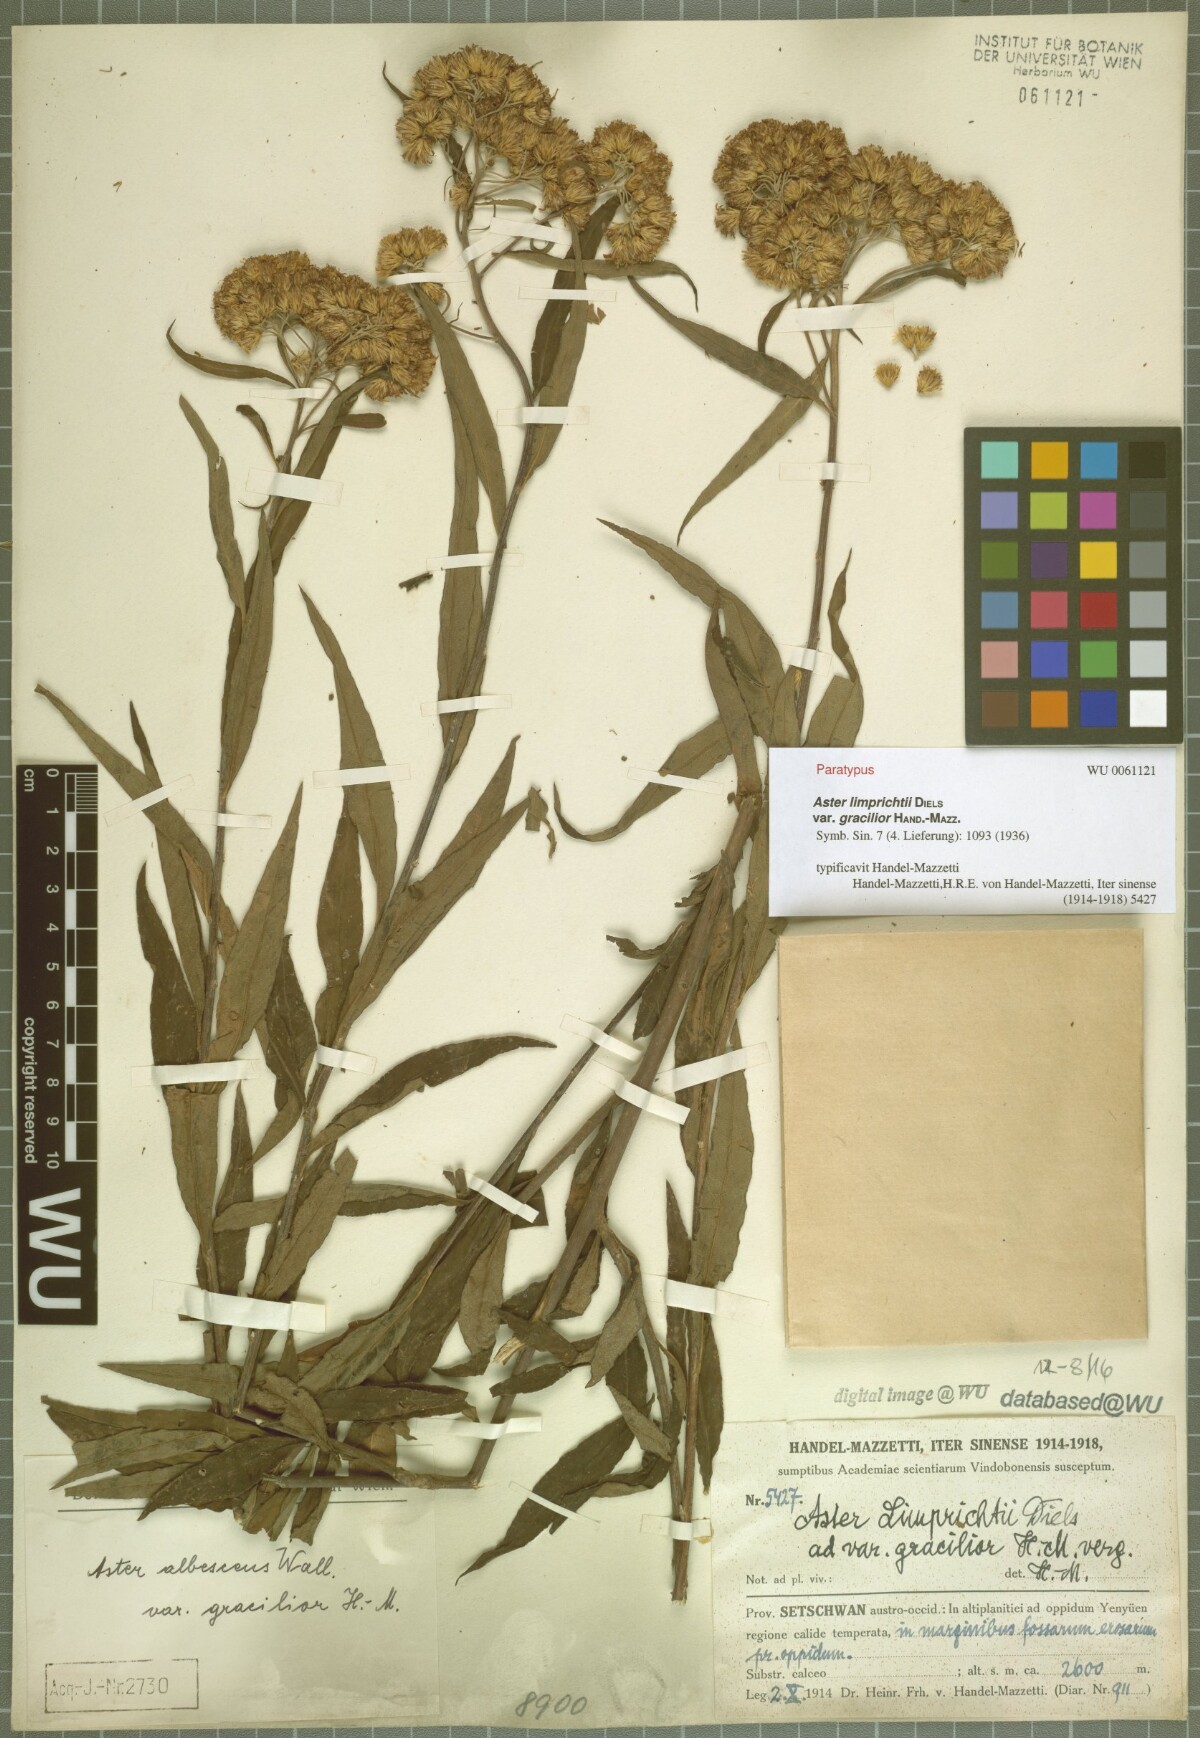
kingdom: Plantae
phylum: Tracheophyta
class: Magnoliopsida
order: Asterales
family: Asteraceae
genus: Sinosidus
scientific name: Sinosidus albescens
